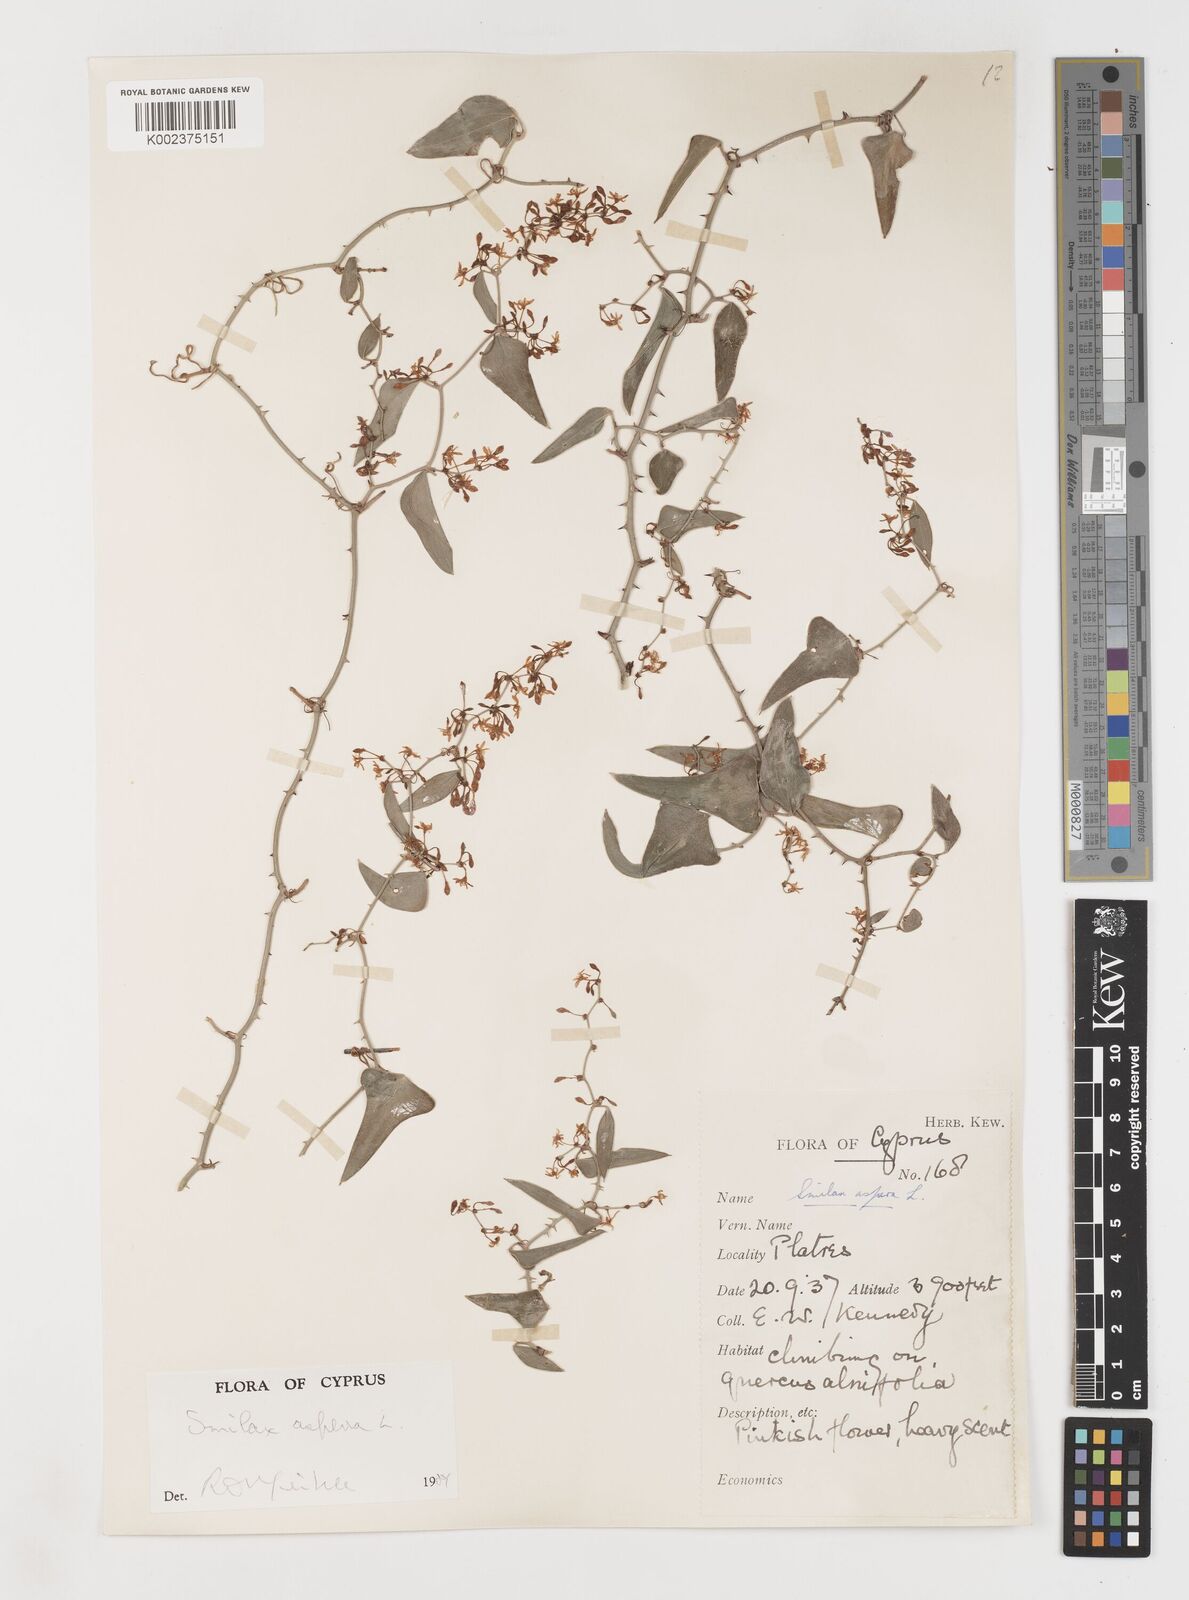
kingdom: Plantae
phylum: Tracheophyta
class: Liliopsida
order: Liliales
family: Smilacaceae
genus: Smilax
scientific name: Smilax aspera
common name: Common smilax
